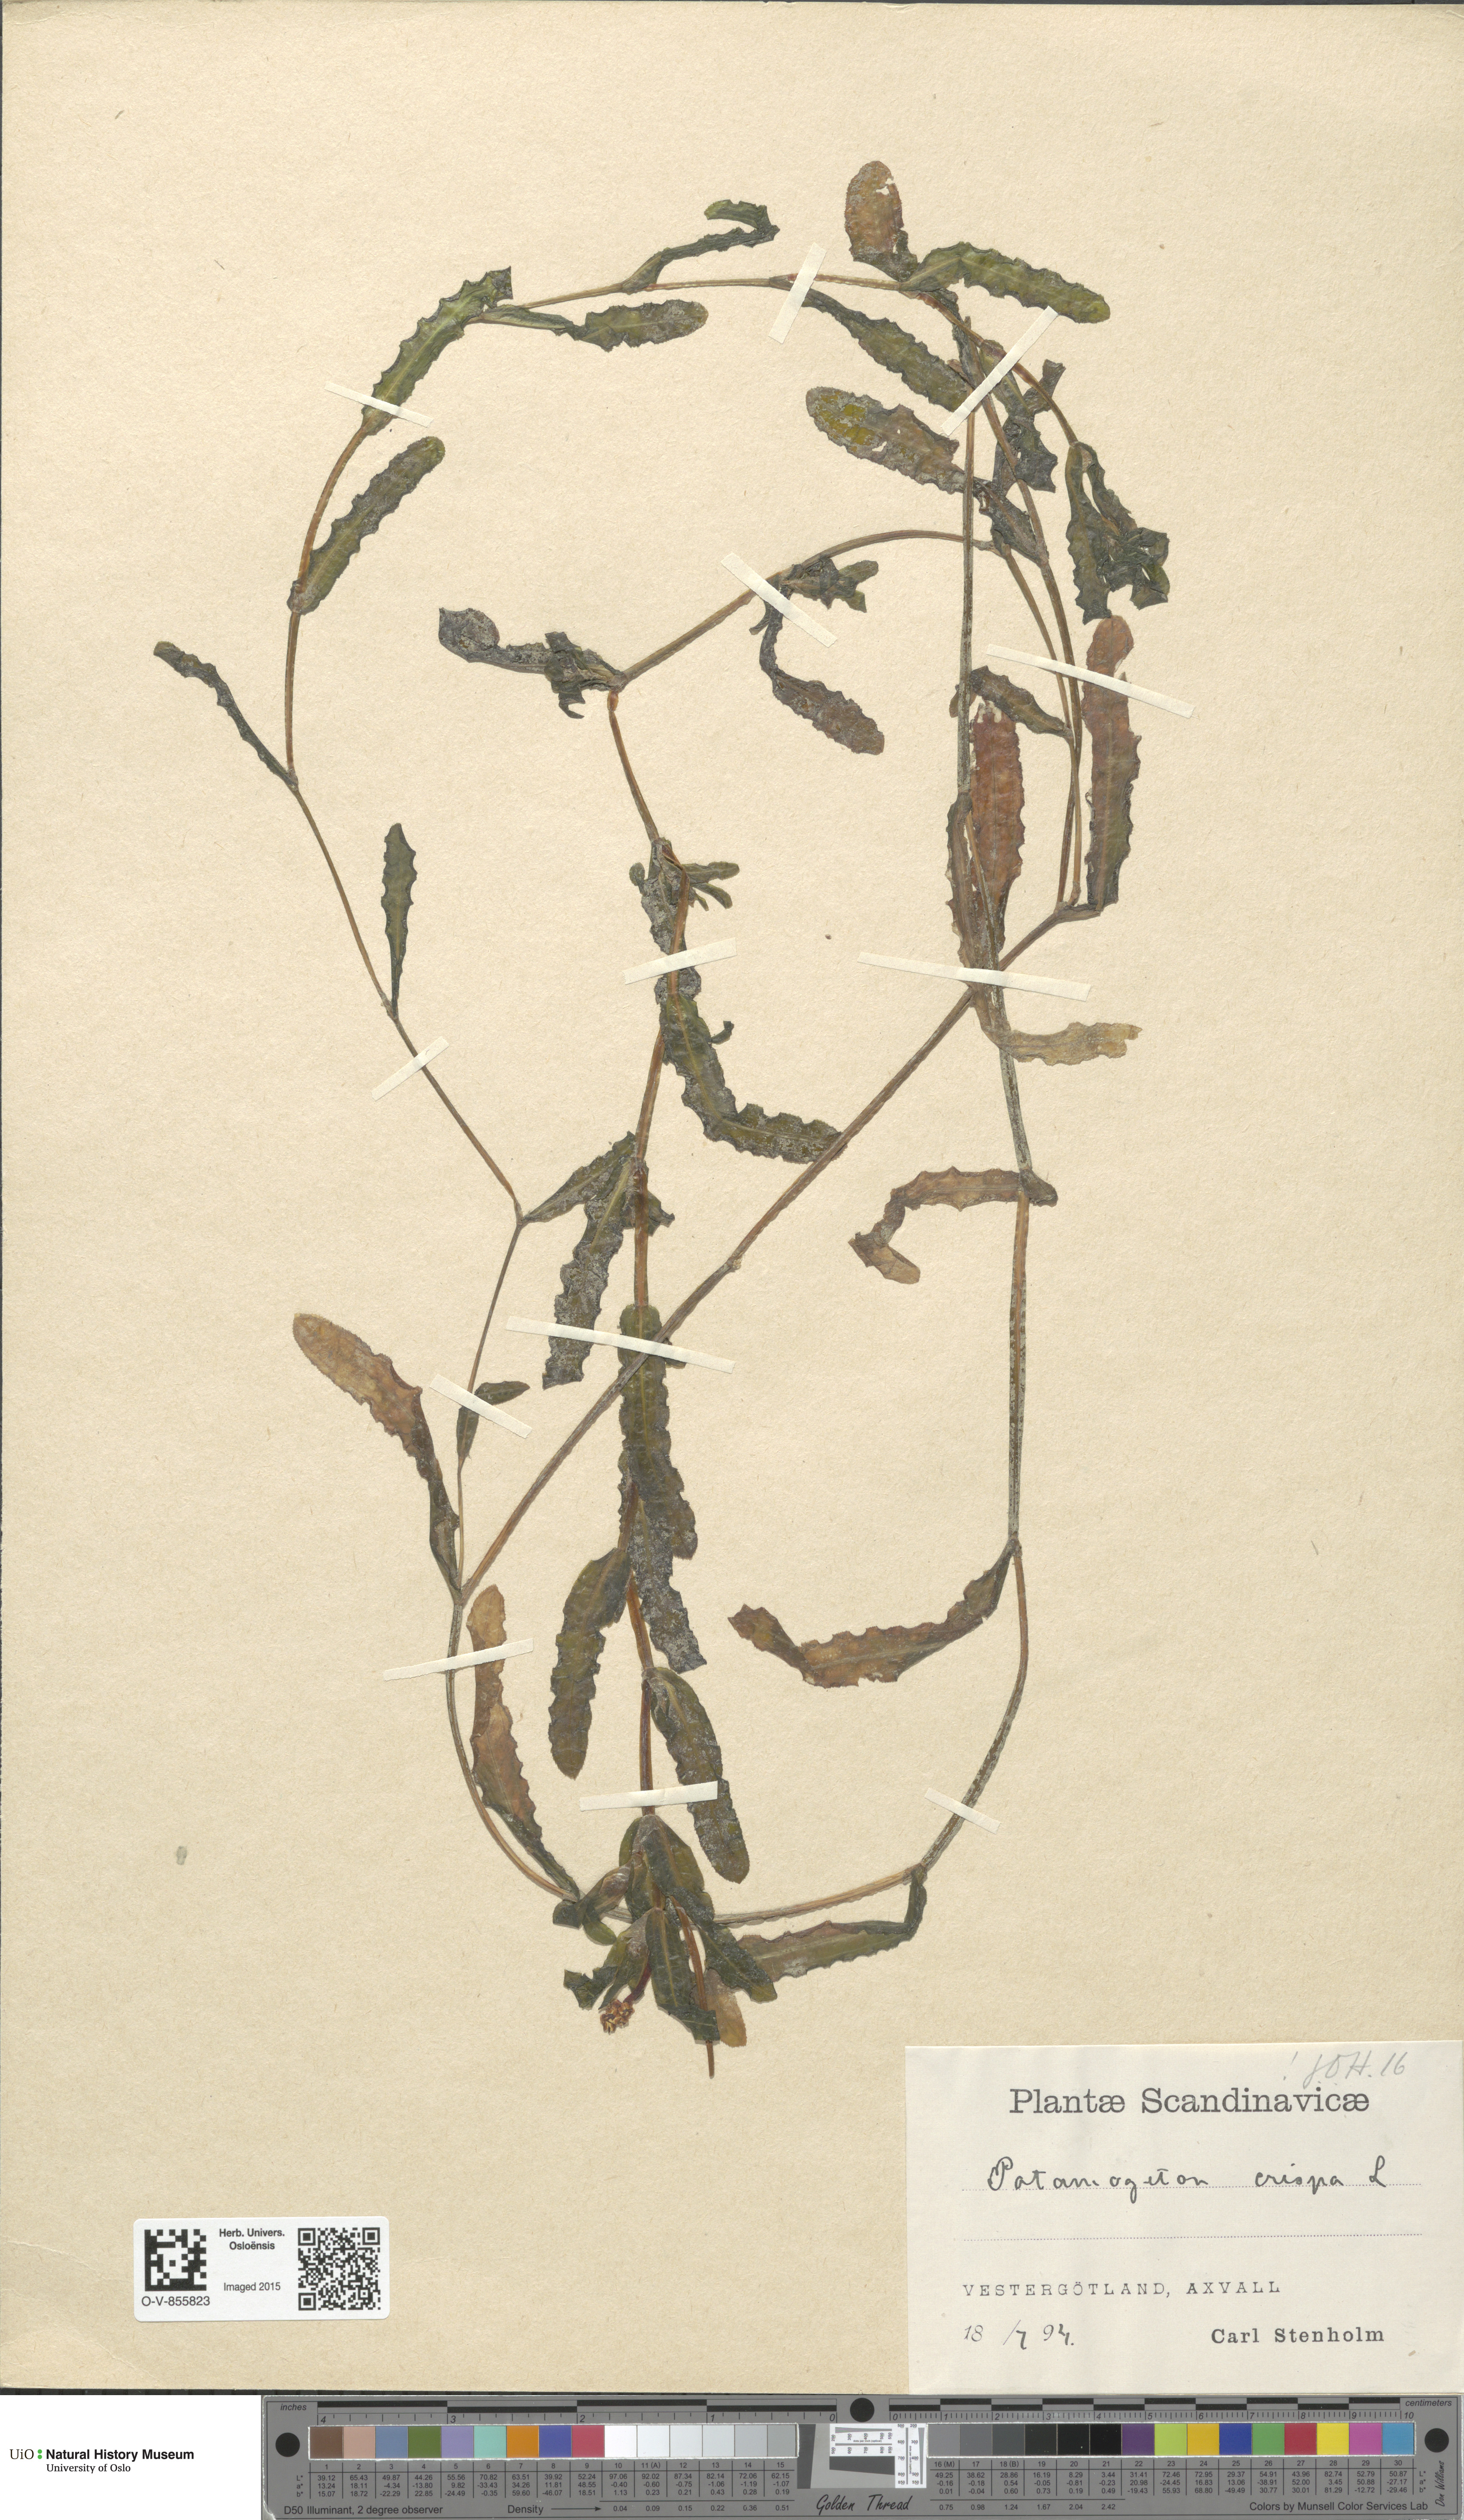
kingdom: Plantae
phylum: Tracheophyta
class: Liliopsida
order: Alismatales
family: Potamogetonaceae
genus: Potamogeton
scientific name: Potamogeton crispus
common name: Curled pondweed
